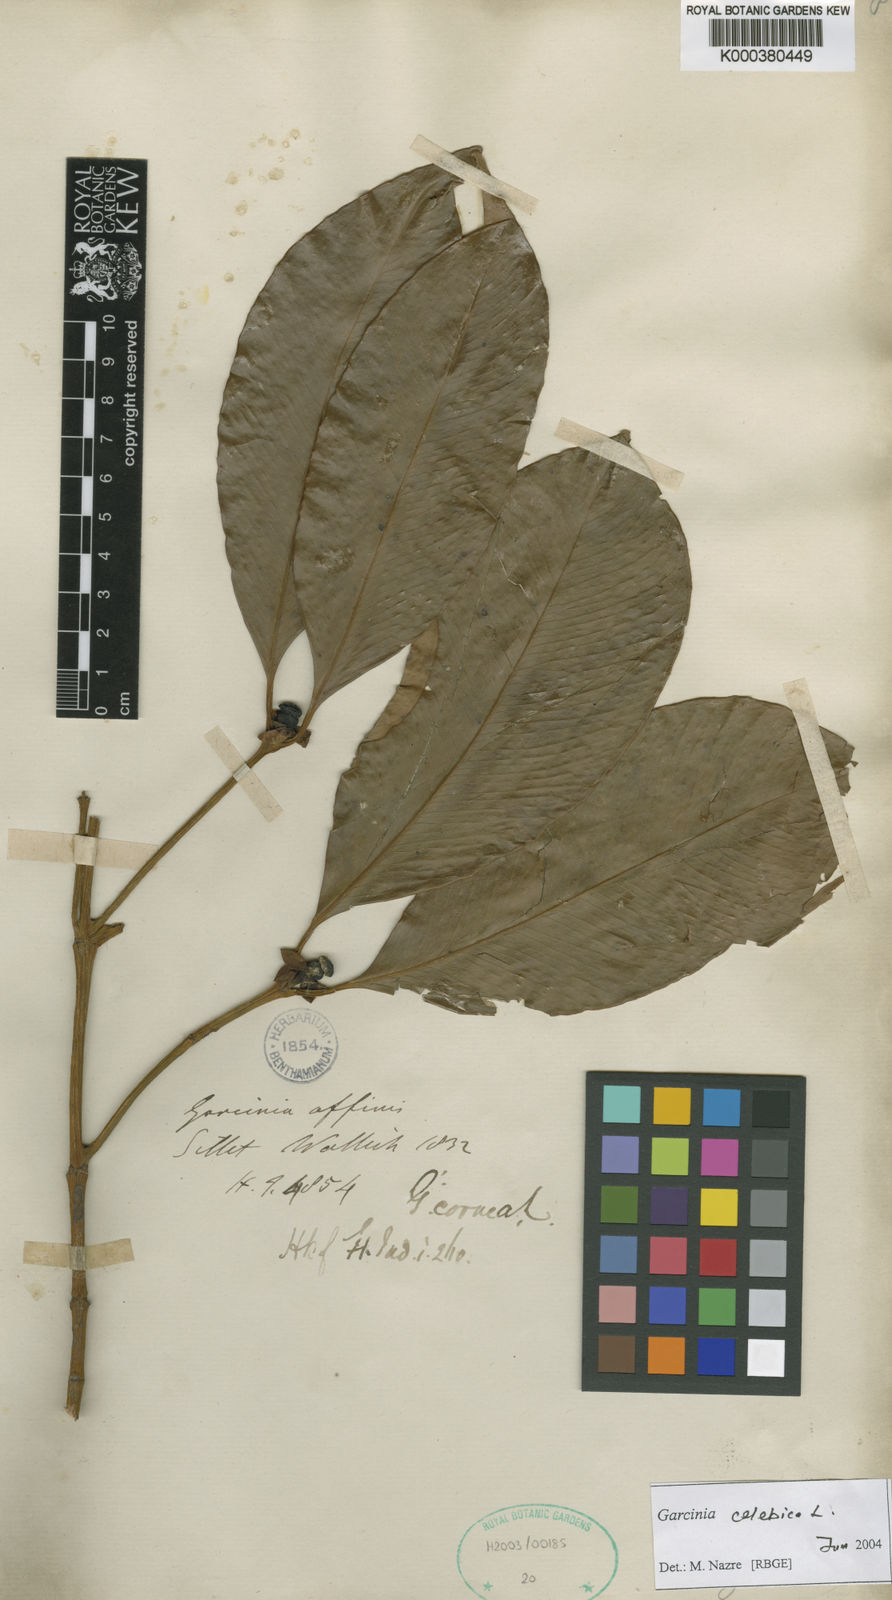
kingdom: Plantae
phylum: Tracheophyta
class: Magnoliopsida
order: Malpighiales
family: Clusiaceae
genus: Garcinia
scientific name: Garcinia celebica
